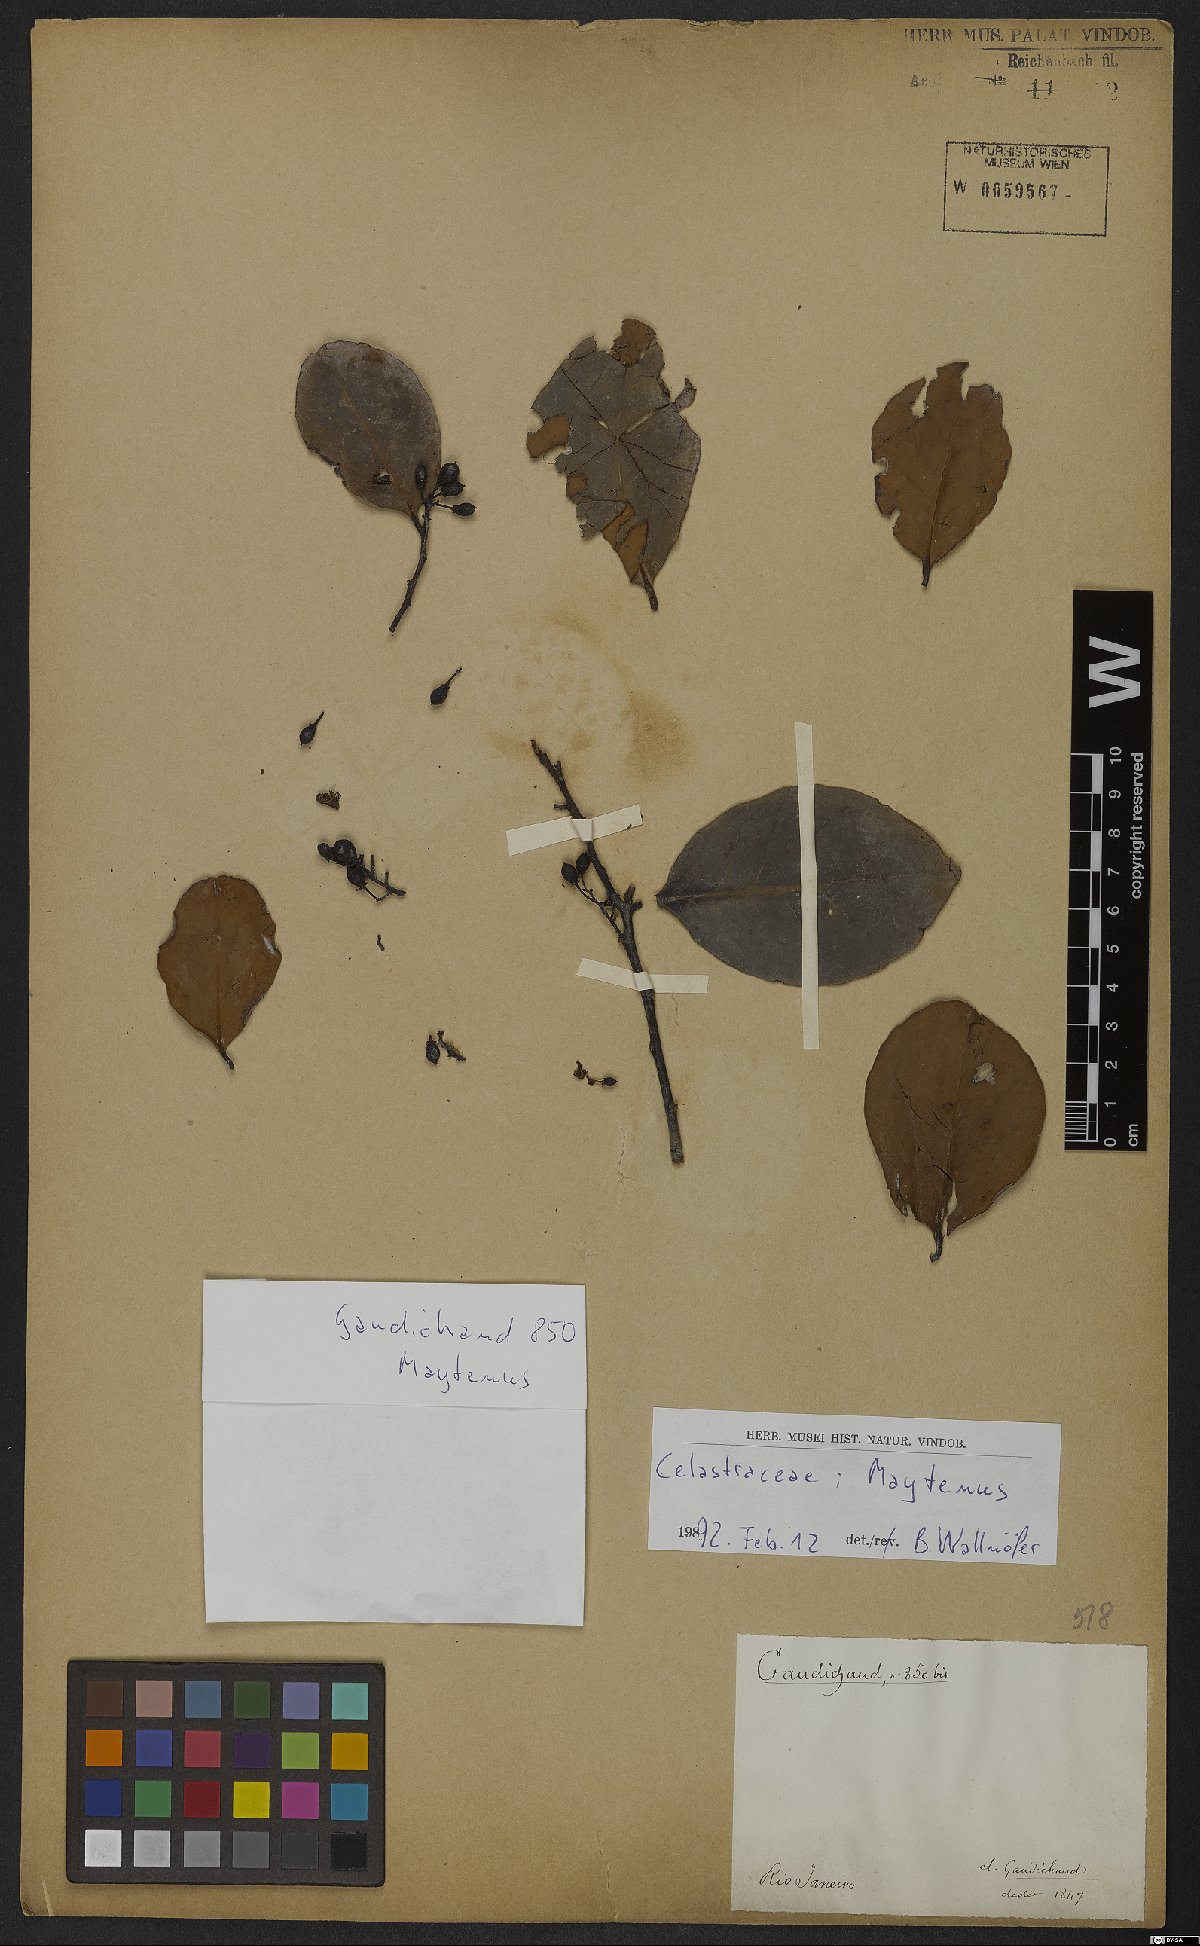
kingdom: Plantae
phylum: Tracheophyta
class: Magnoliopsida
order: Celastrales
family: Celastraceae
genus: Maytenus
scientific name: Maytenus
